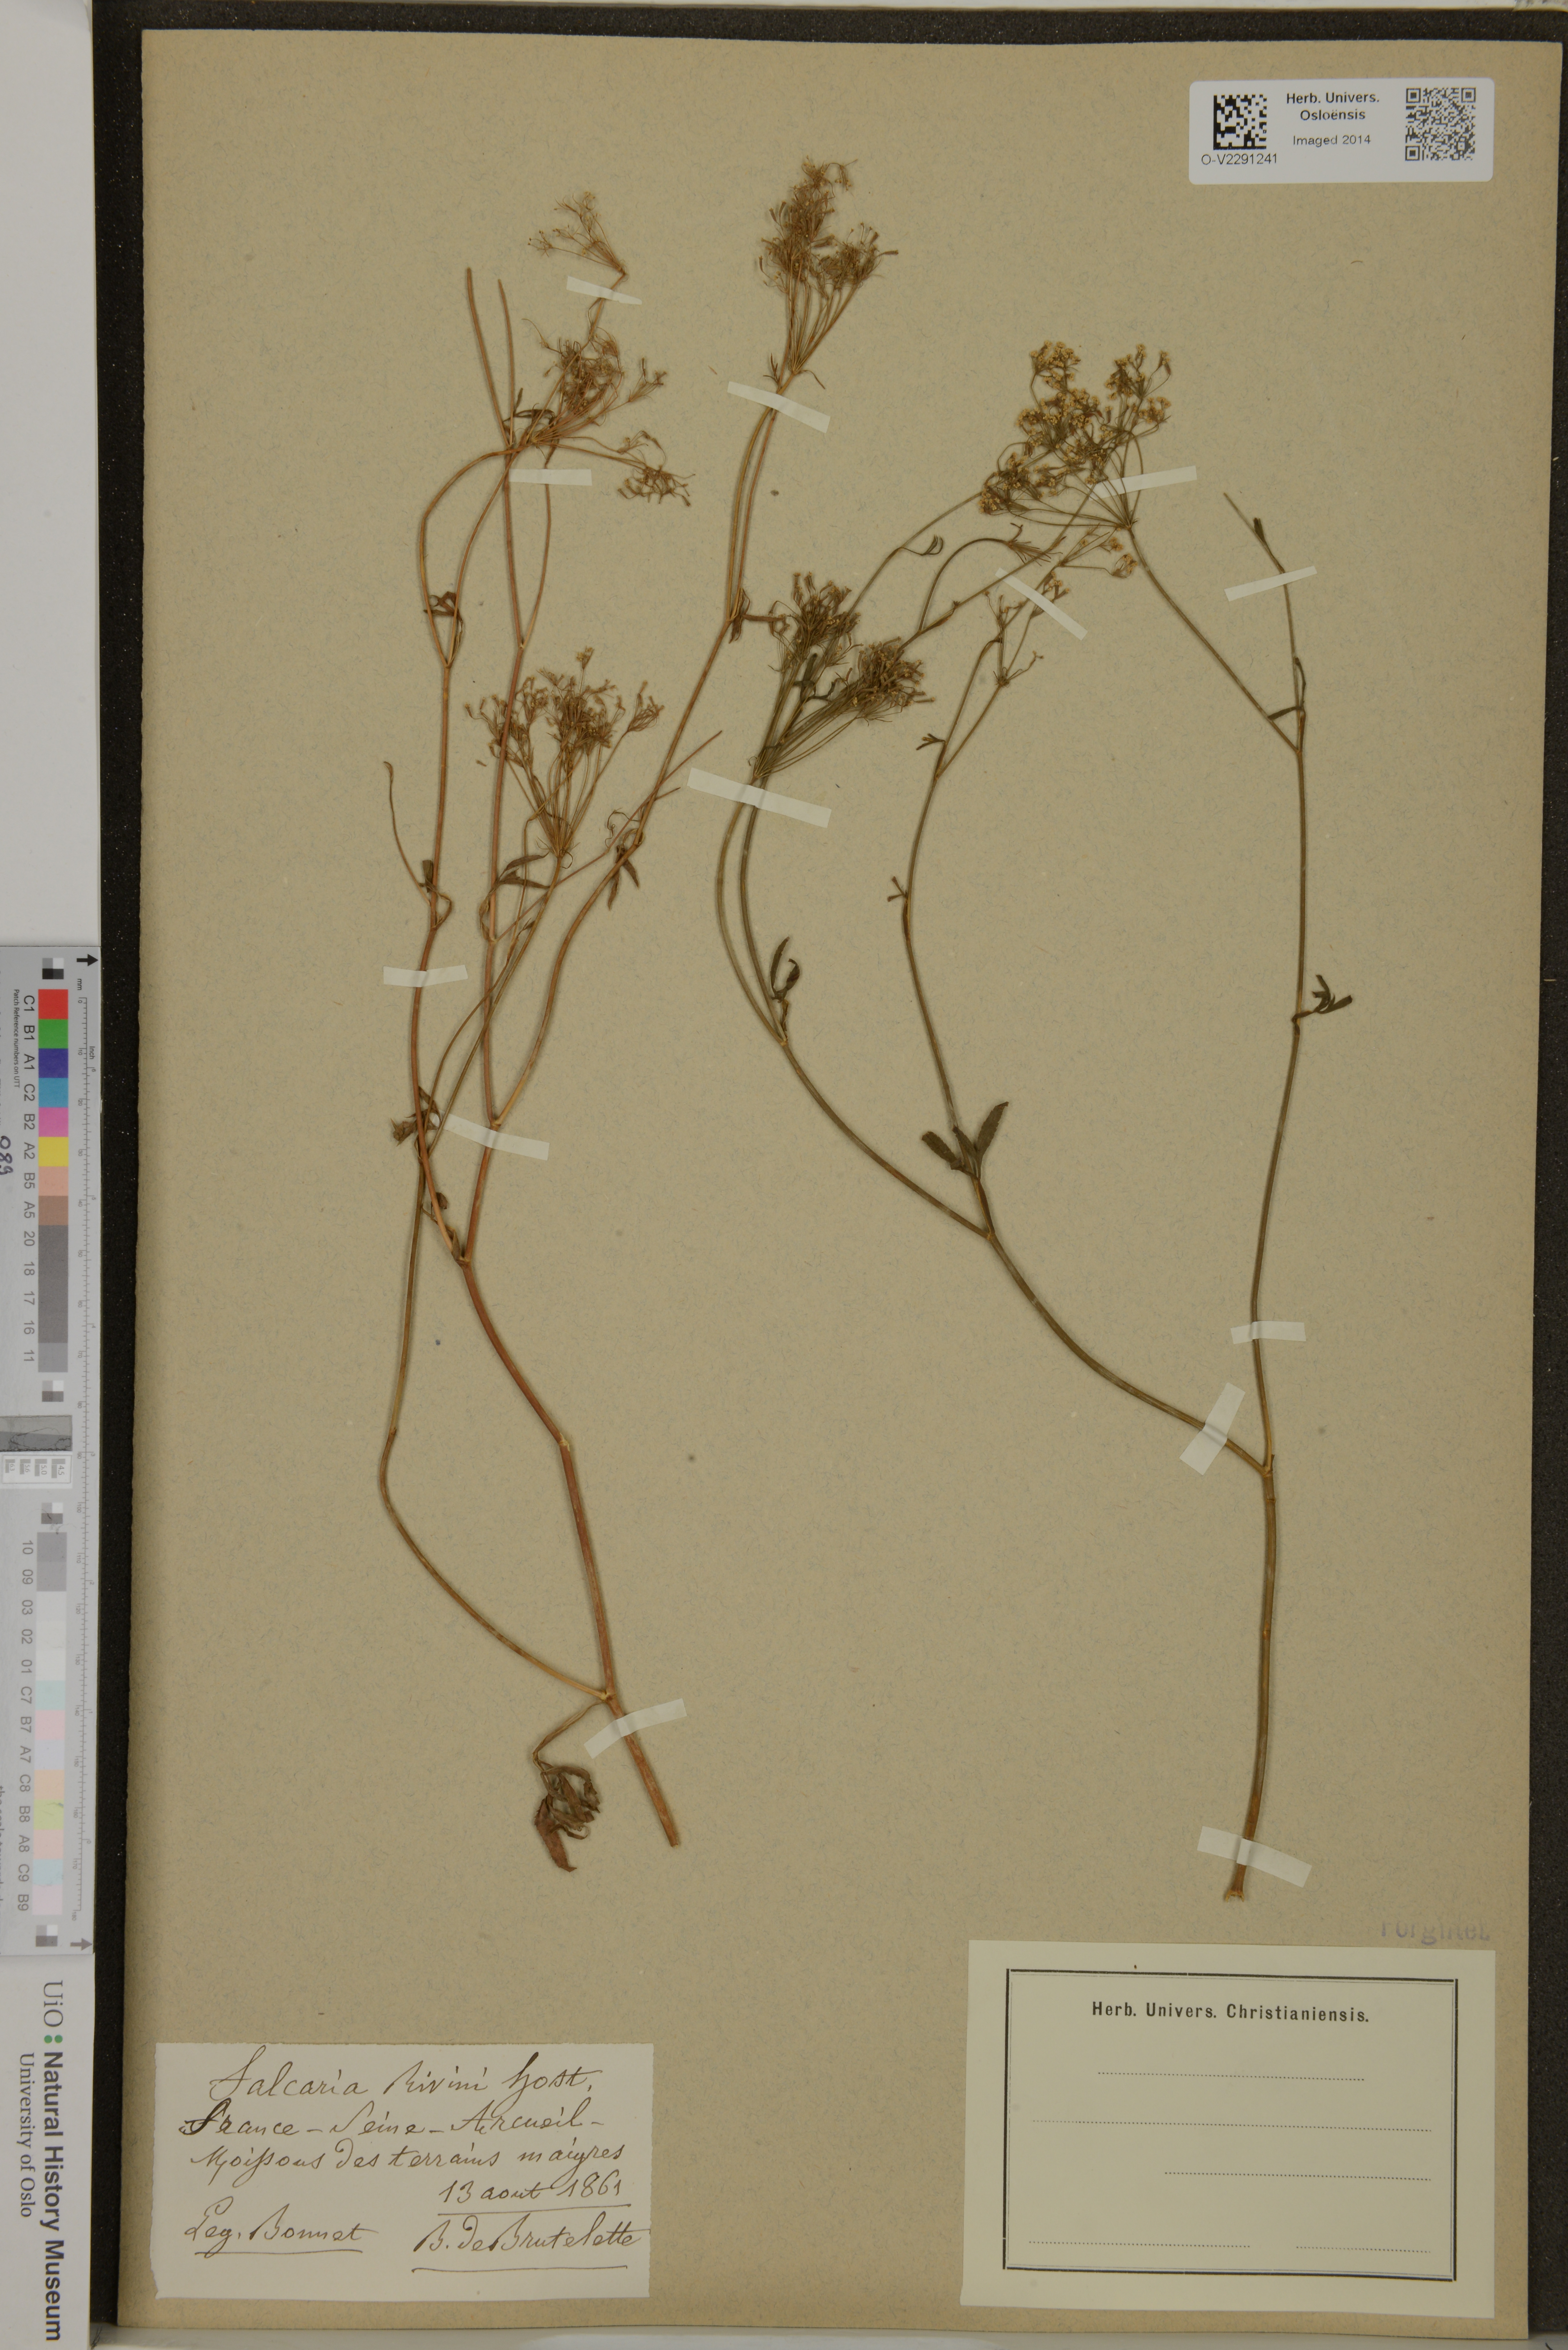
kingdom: Plantae
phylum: Tracheophyta
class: Magnoliopsida
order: Apiales
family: Apiaceae
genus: Falcaria
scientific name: Falcaria vulgaris
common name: Longleaf
